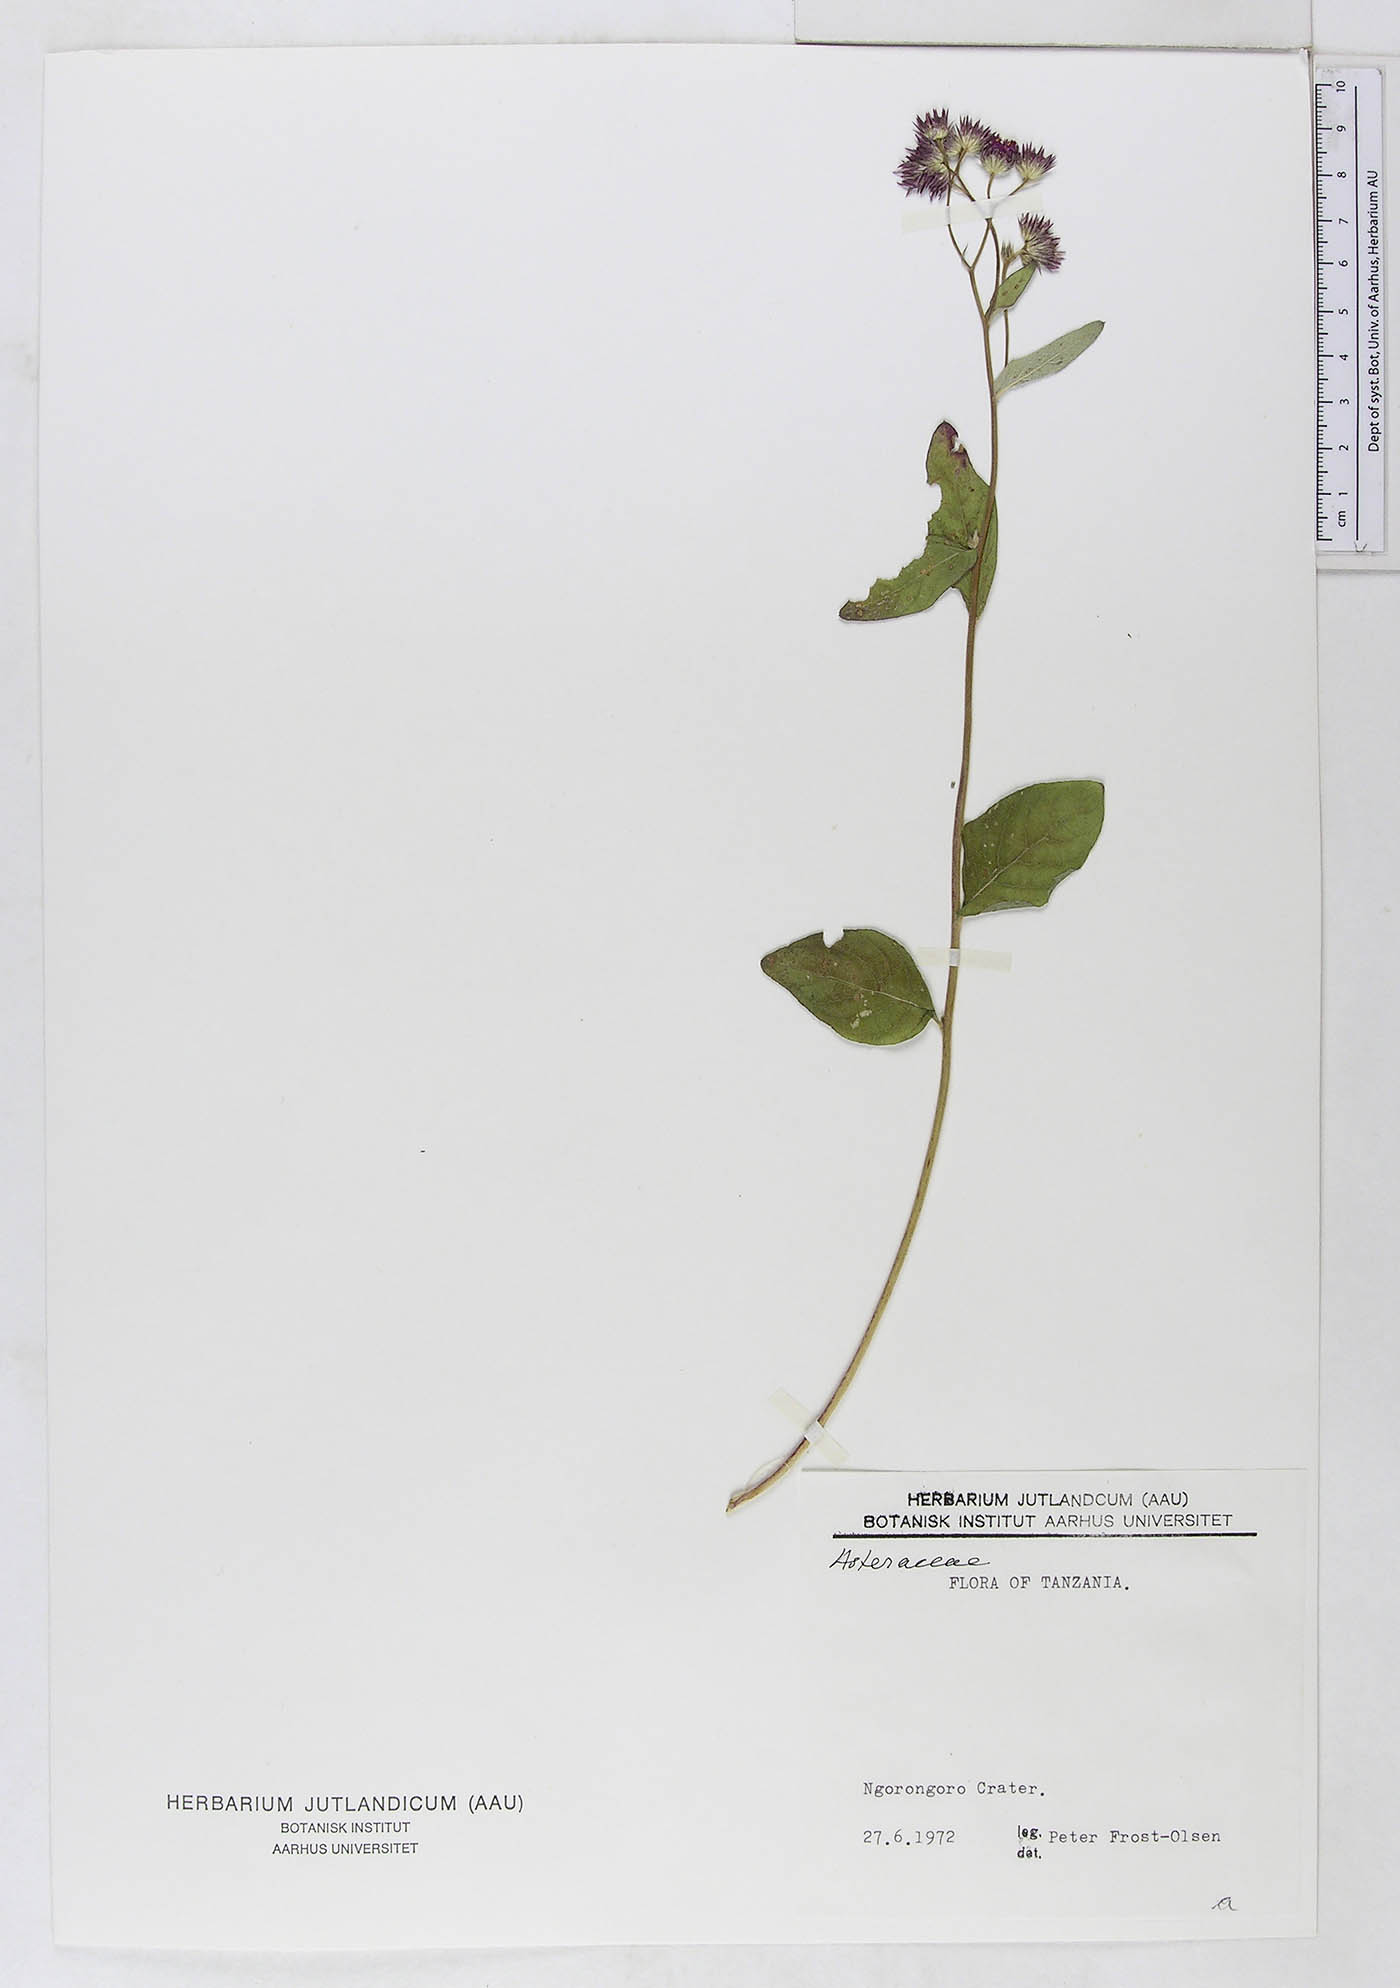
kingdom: Plantae
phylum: Tracheophyta
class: Magnoliopsida
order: Asterales
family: Asteraceae
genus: Gutenbergia
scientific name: Gutenbergia polytrichotoma
